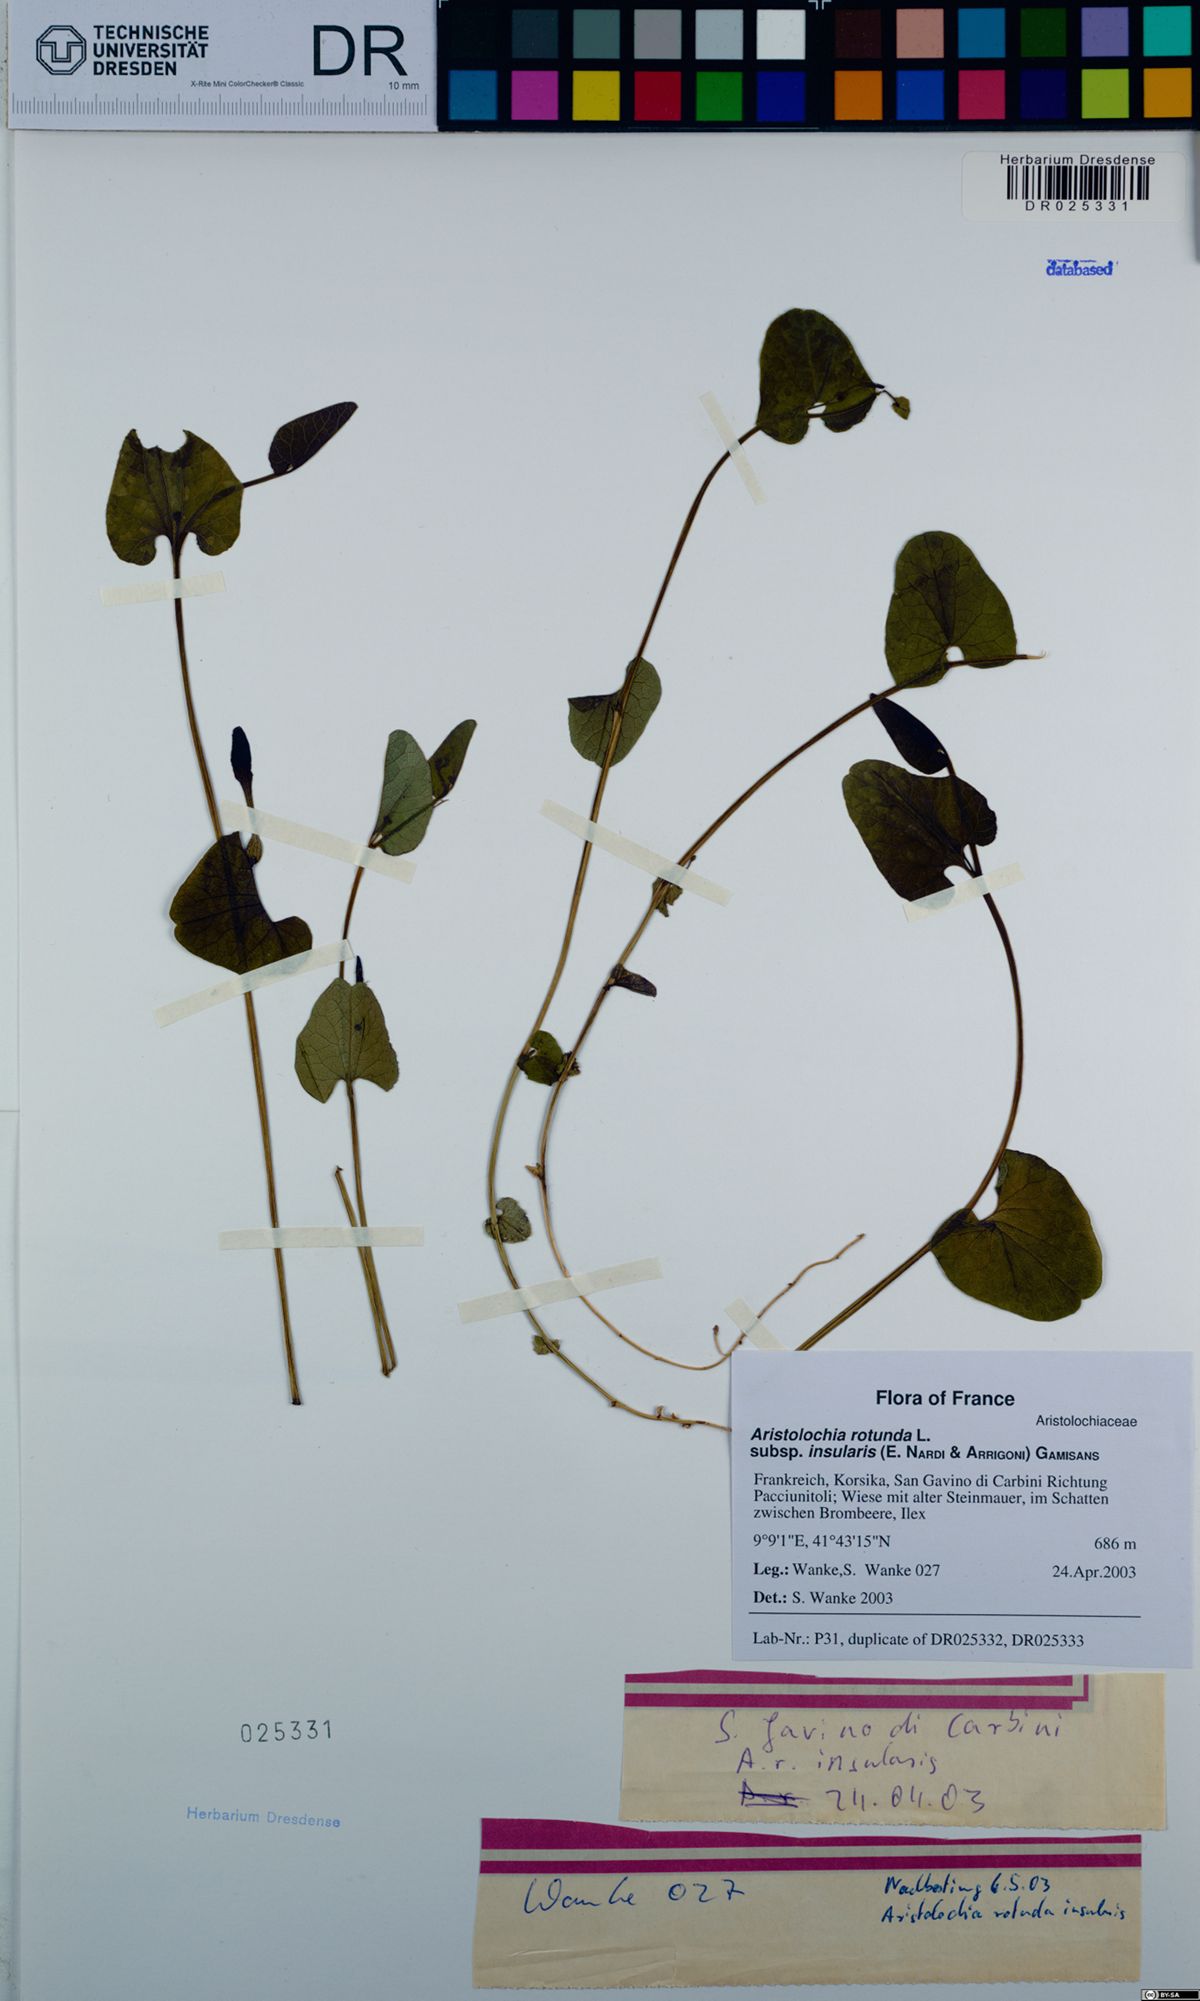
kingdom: Plantae
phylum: Tracheophyta
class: Magnoliopsida
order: Piperales
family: Aristolochiaceae
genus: Aristolochia
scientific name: Aristolochia rotunda
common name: Smearwort
